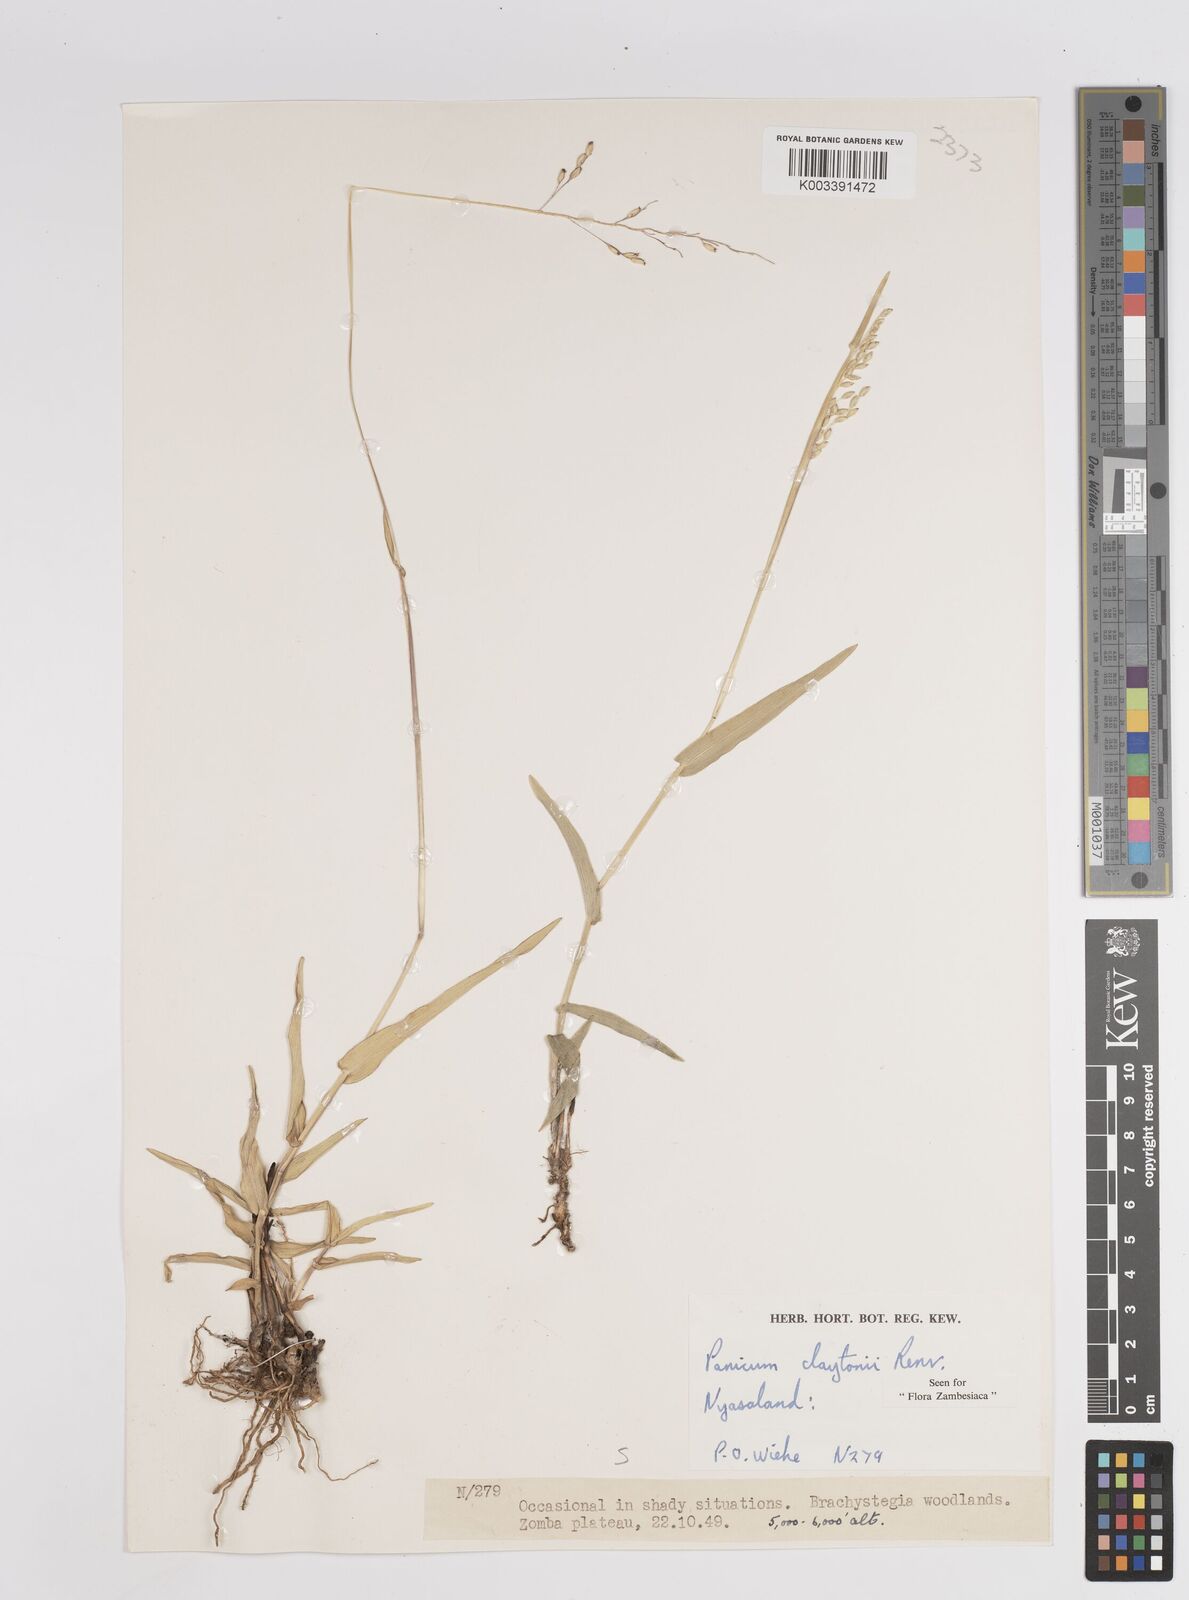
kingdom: Plantae
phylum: Tracheophyta
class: Liliopsida
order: Poales
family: Poaceae
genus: Adenochloa
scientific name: Adenochloa claytonii
